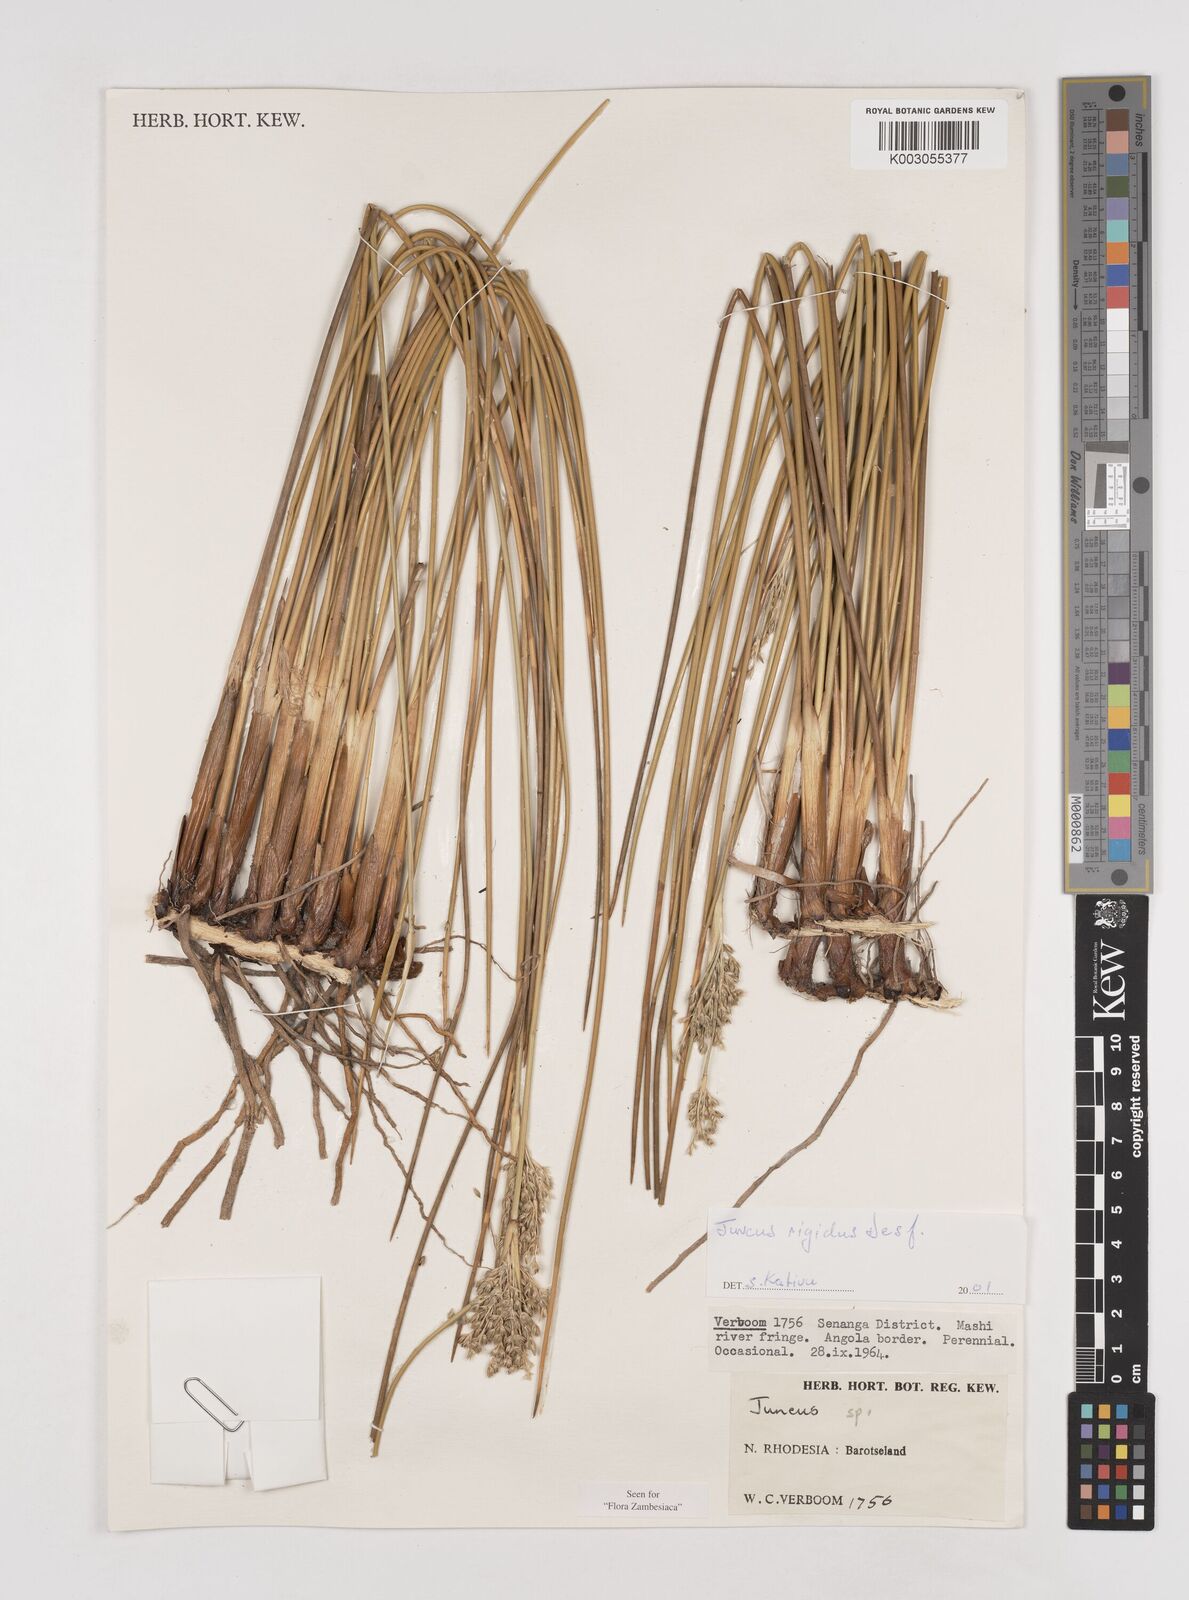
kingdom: Plantae
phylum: Tracheophyta
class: Liliopsida
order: Poales
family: Juncaceae
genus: Juncus
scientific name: Juncus rigidus
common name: Hard sea rush
